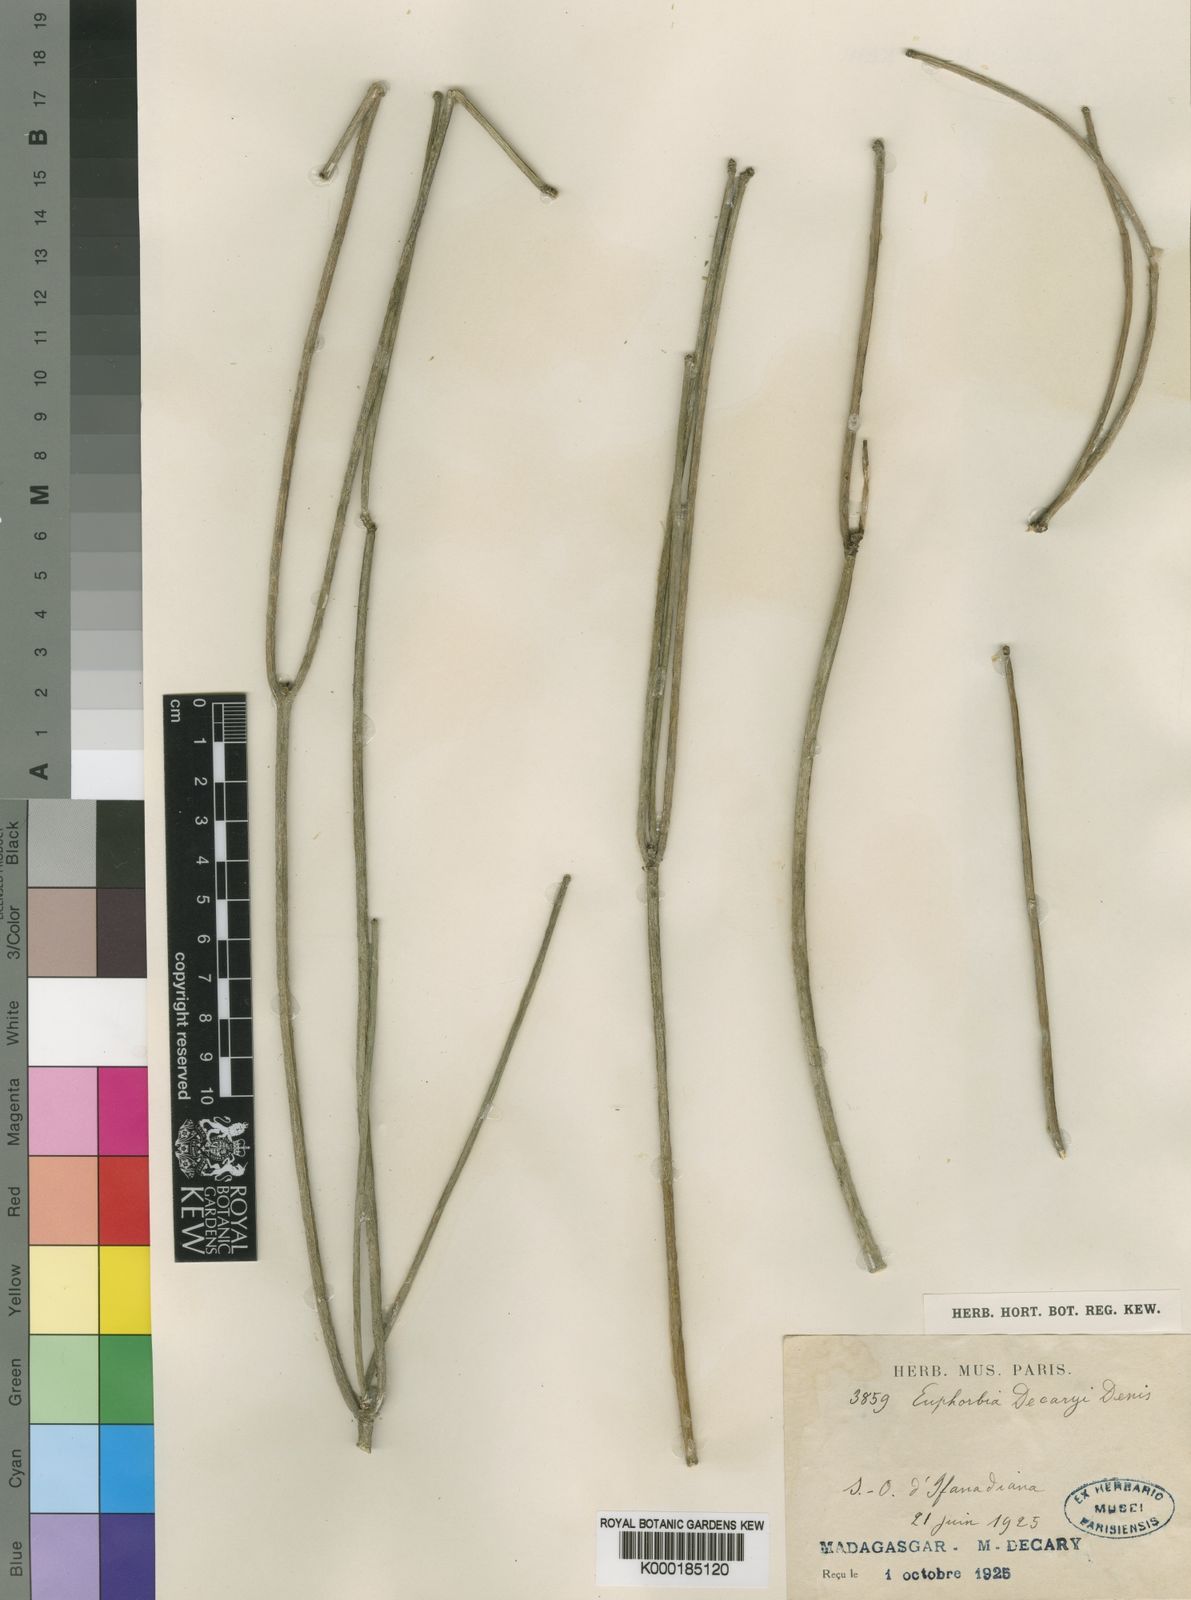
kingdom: Plantae
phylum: Tracheophyta
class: Magnoliopsida
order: Malpighiales
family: Euphorbiaceae
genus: Euphorbia
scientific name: Euphorbia rangovalensis
